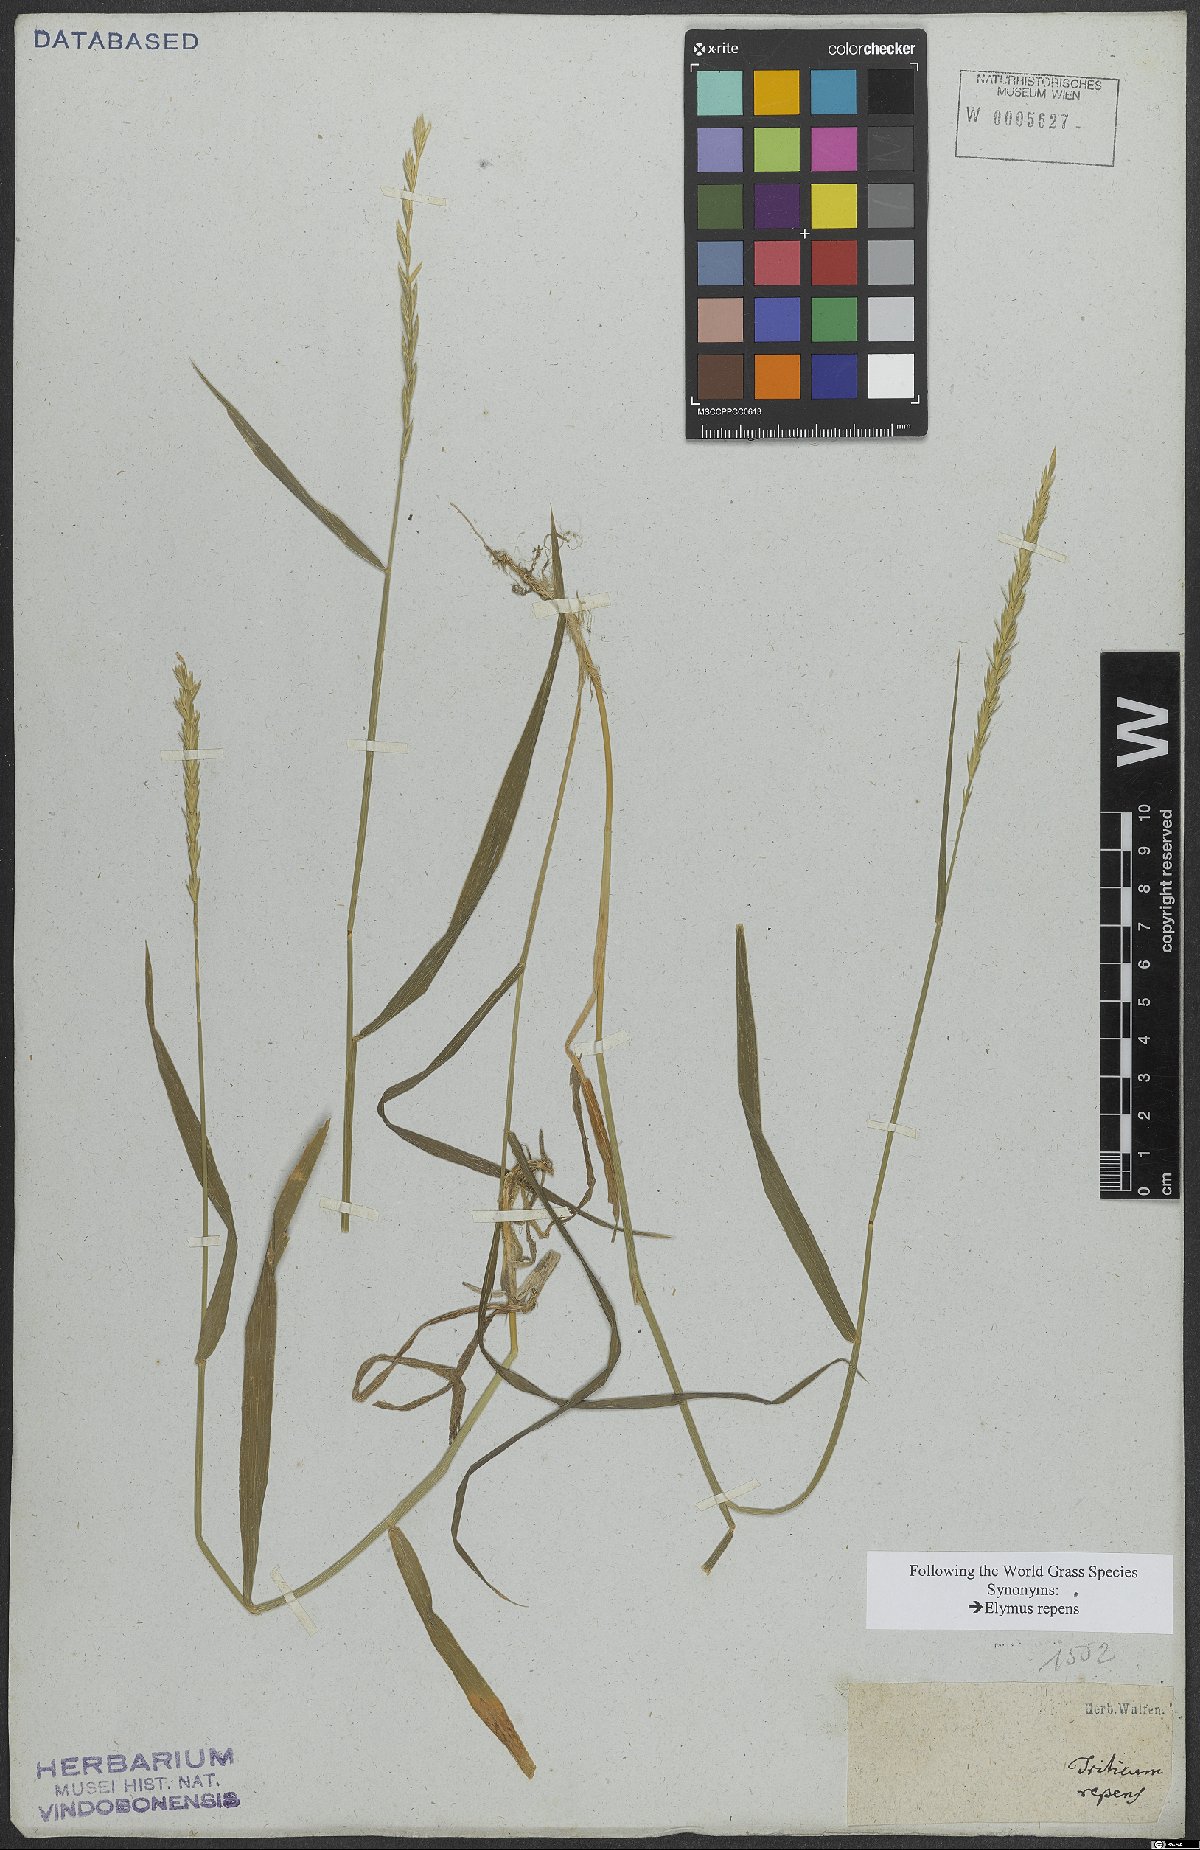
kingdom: Plantae
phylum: Tracheophyta
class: Liliopsida
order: Poales
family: Poaceae
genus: Elymus
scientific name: Elymus repens
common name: Quackgrass
